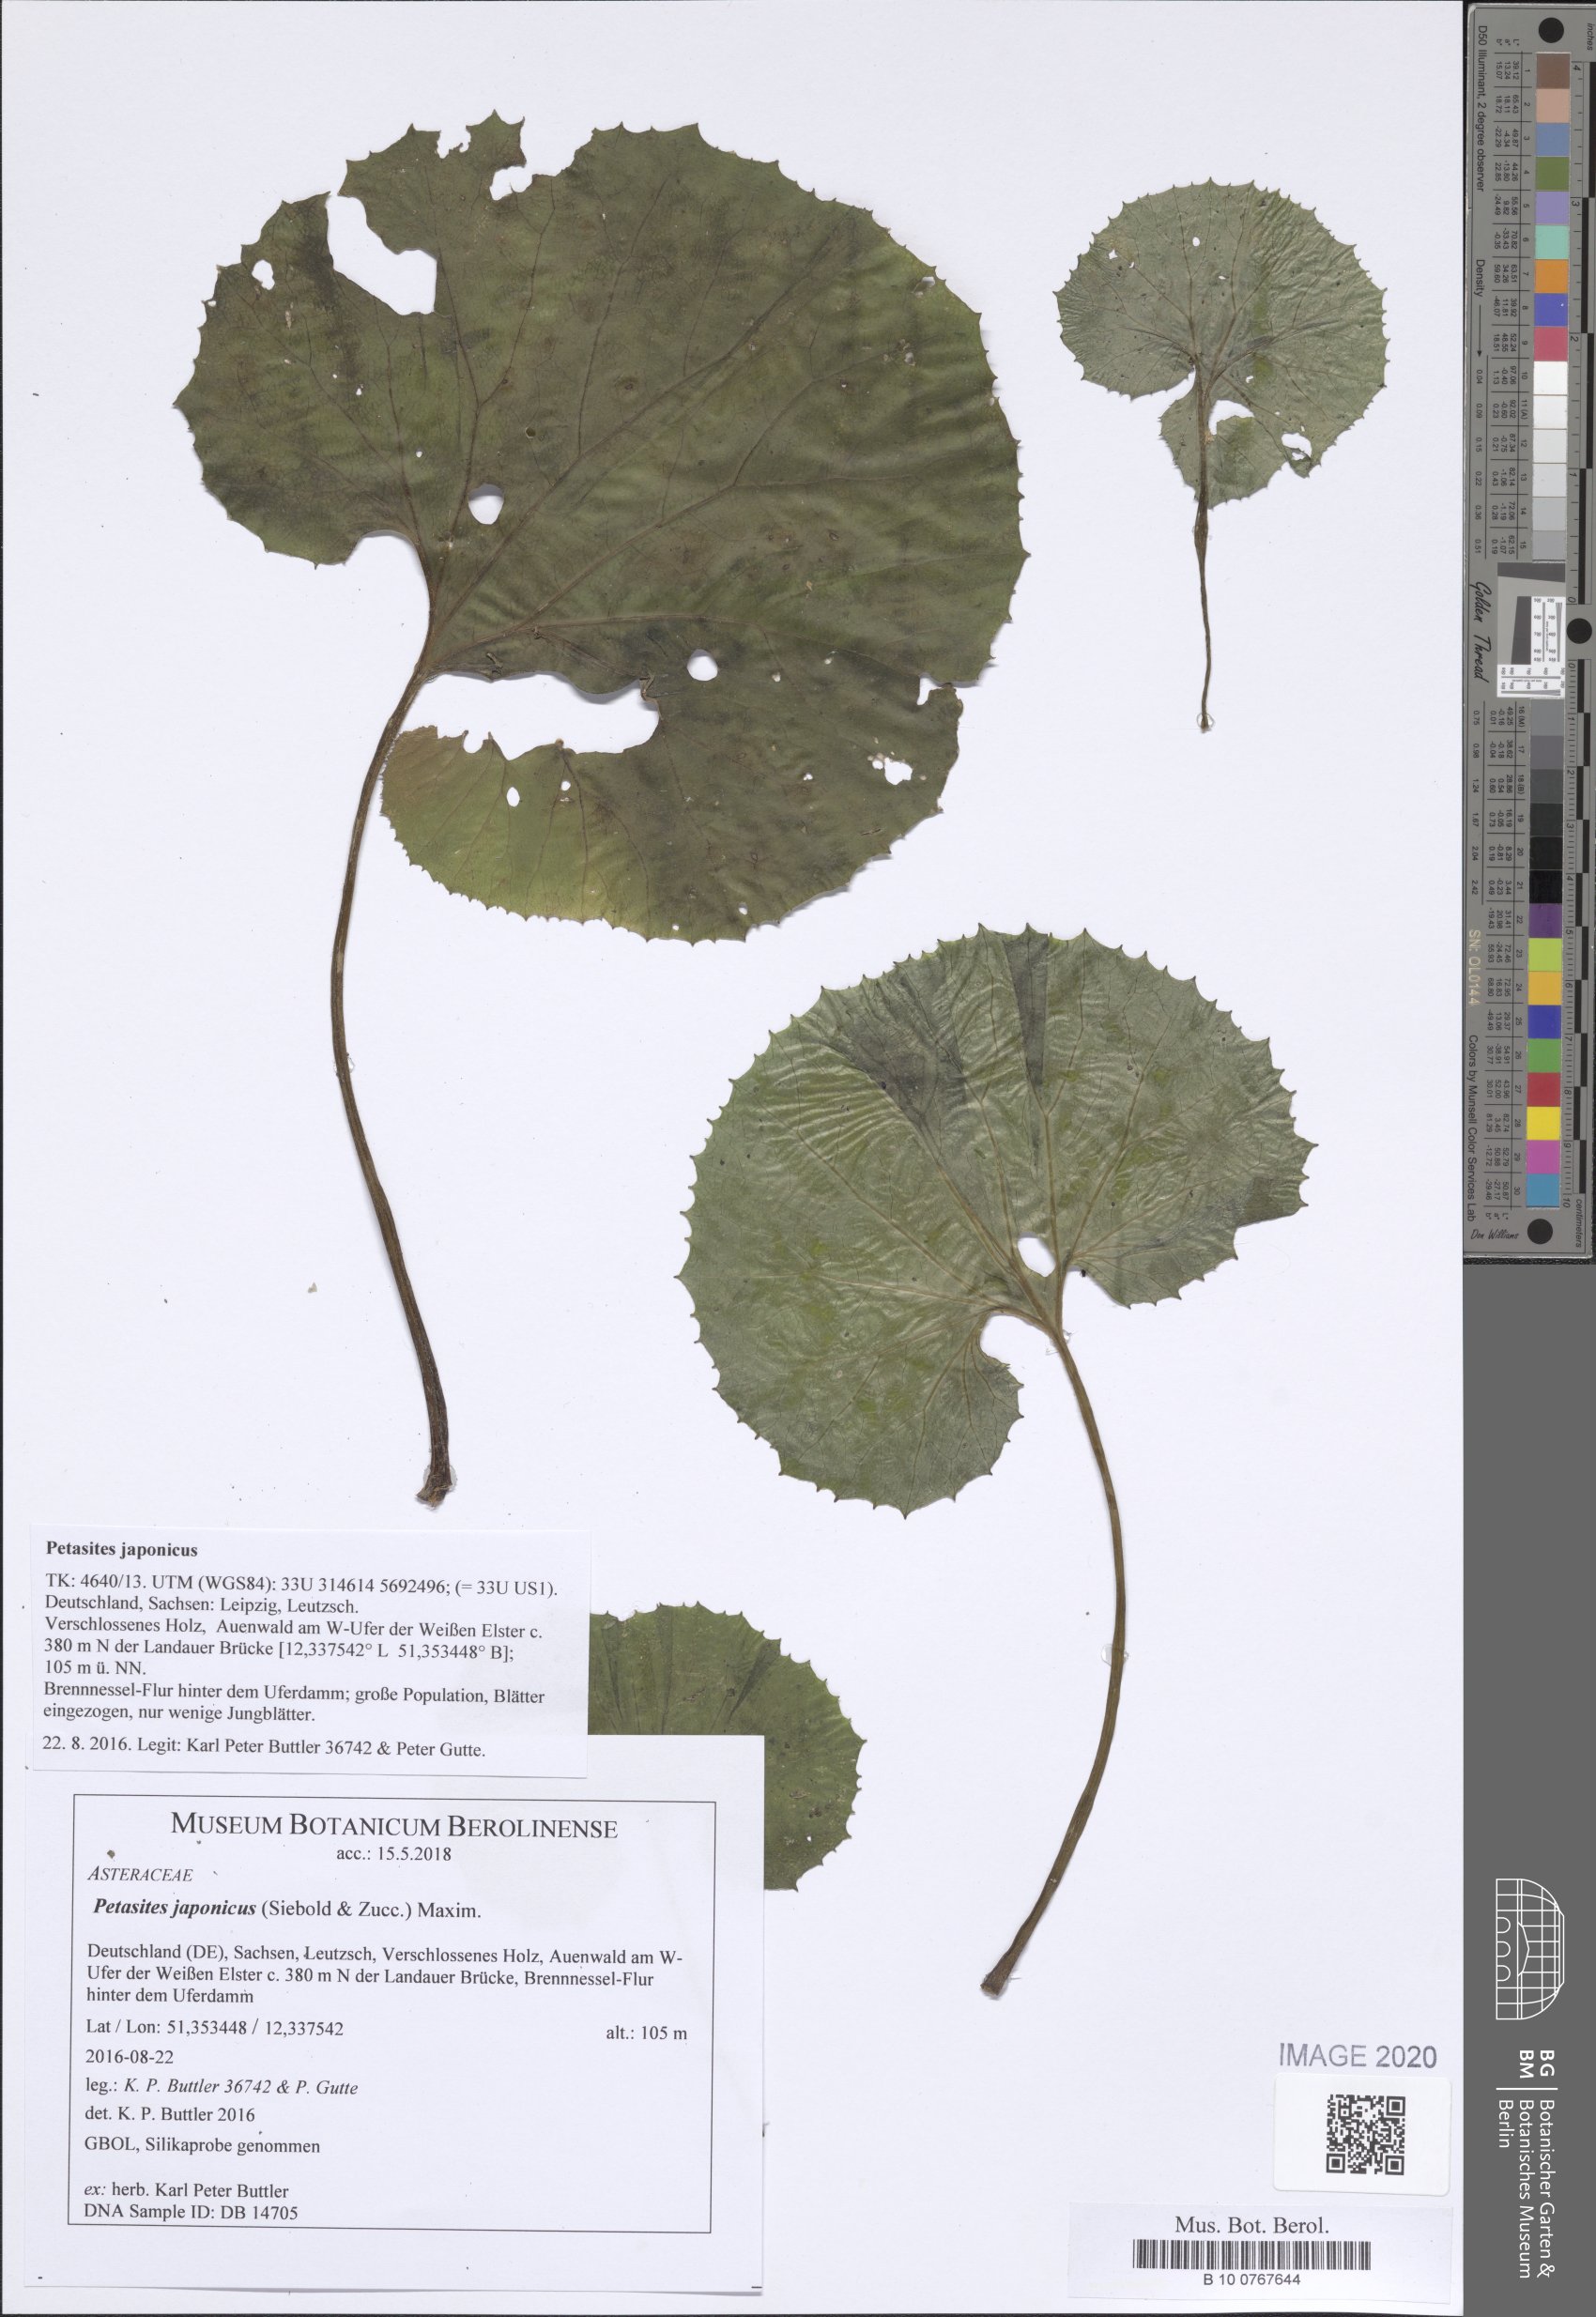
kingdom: Plantae
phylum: Tracheophyta
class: Magnoliopsida
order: Asterales
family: Asteraceae
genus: Petasites
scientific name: Petasites japonicus
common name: Giant butterbur
